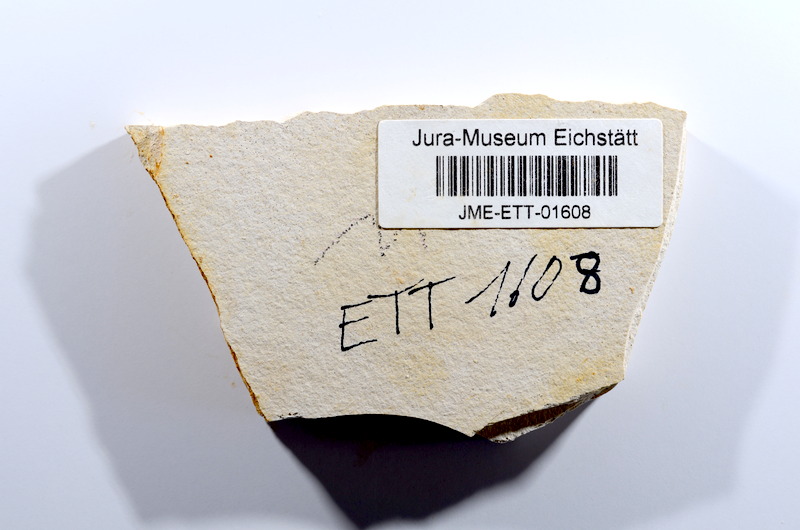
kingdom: Animalia
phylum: Chordata
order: Salmoniformes
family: Orthogonikleithridae
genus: Orthogonikleithrus
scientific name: Orthogonikleithrus hoelli
